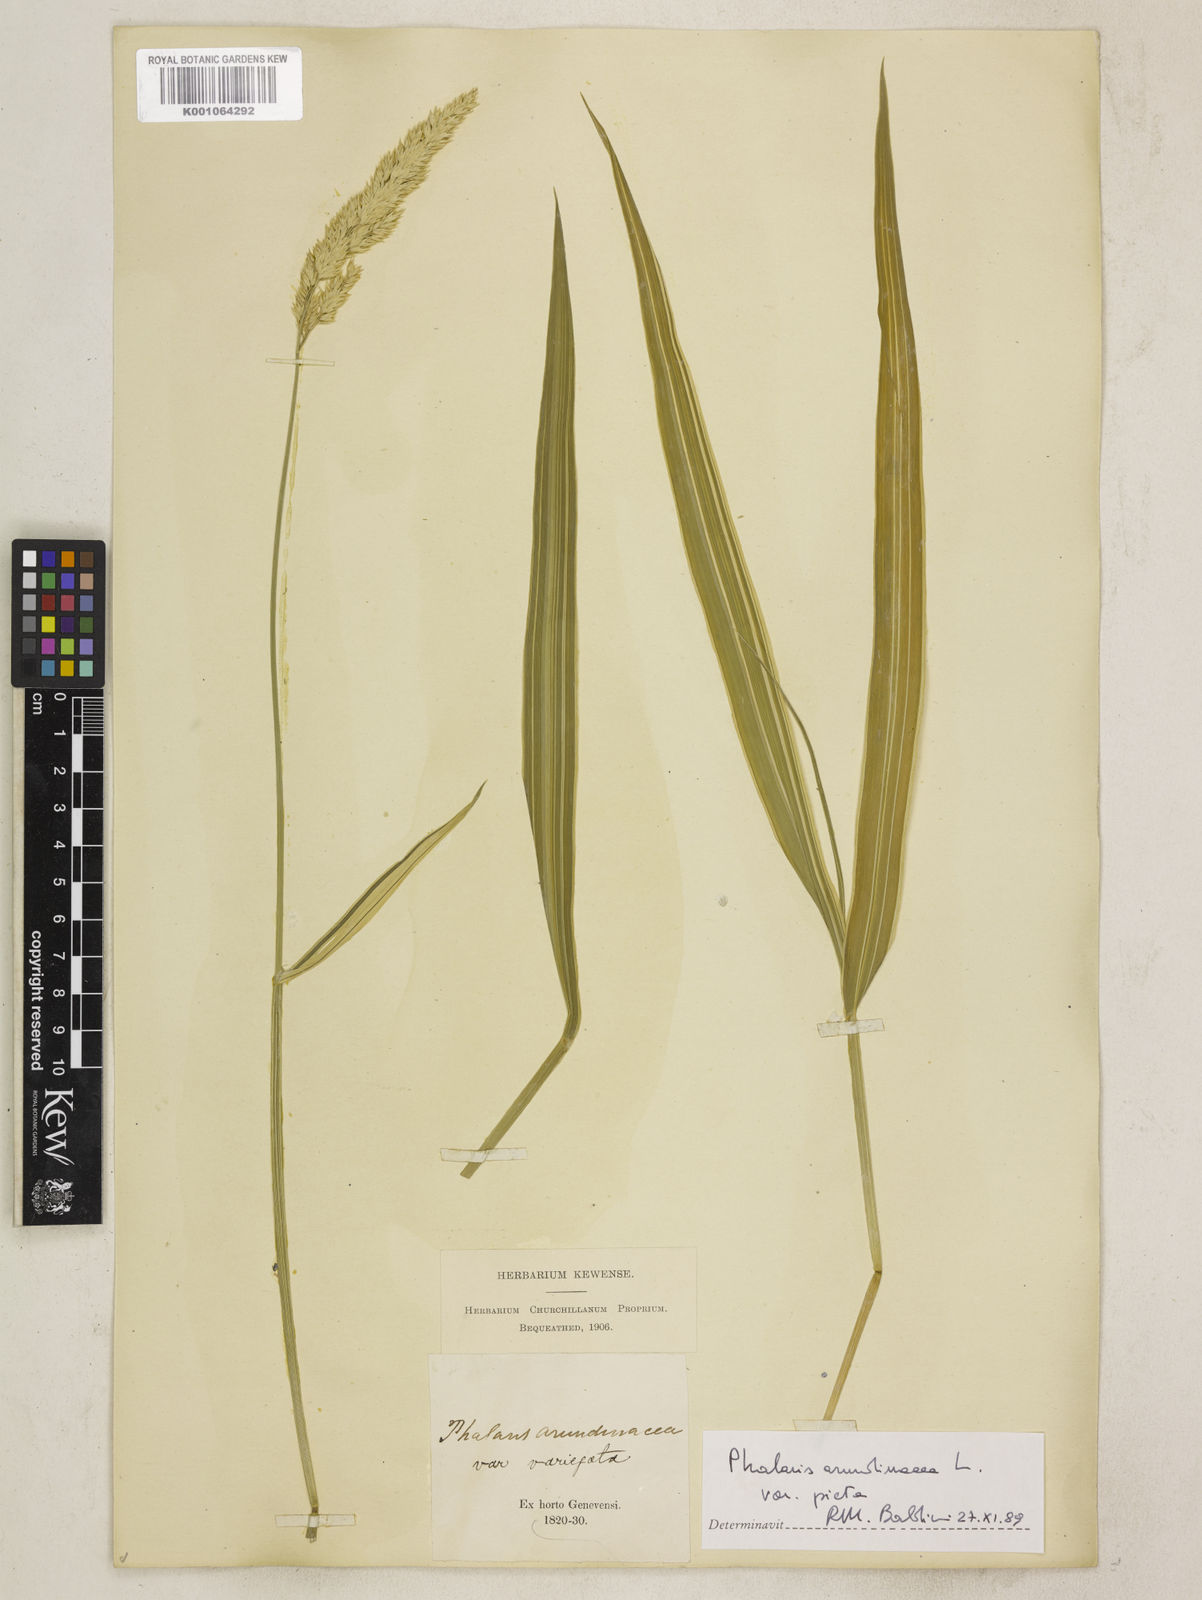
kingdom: Plantae
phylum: Tracheophyta
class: Liliopsida
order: Poales
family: Poaceae
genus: Phalaris
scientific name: Phalaris arundinacea
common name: Reed canary-grass
